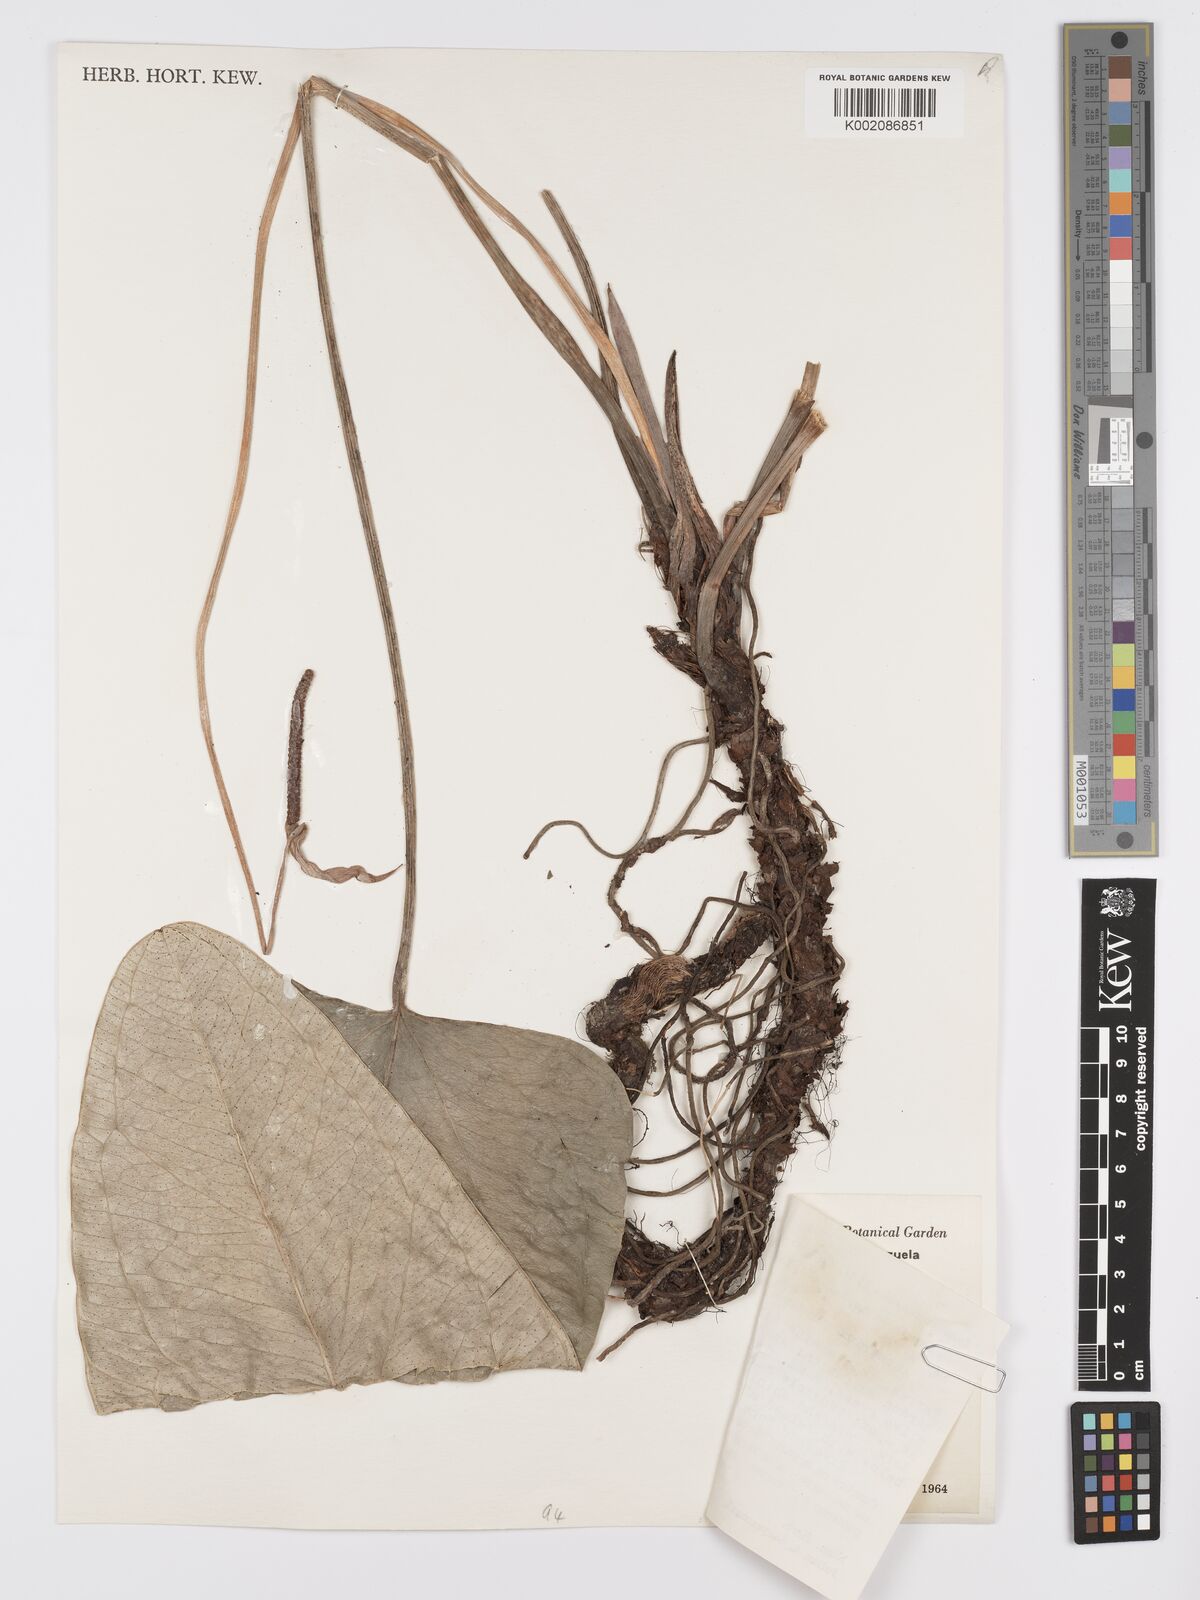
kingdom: Plantae
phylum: Tracheophyta
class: Liliopsida
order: Alismatales
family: Araceae
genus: Anthurium
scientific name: Anthurium ptarianum
